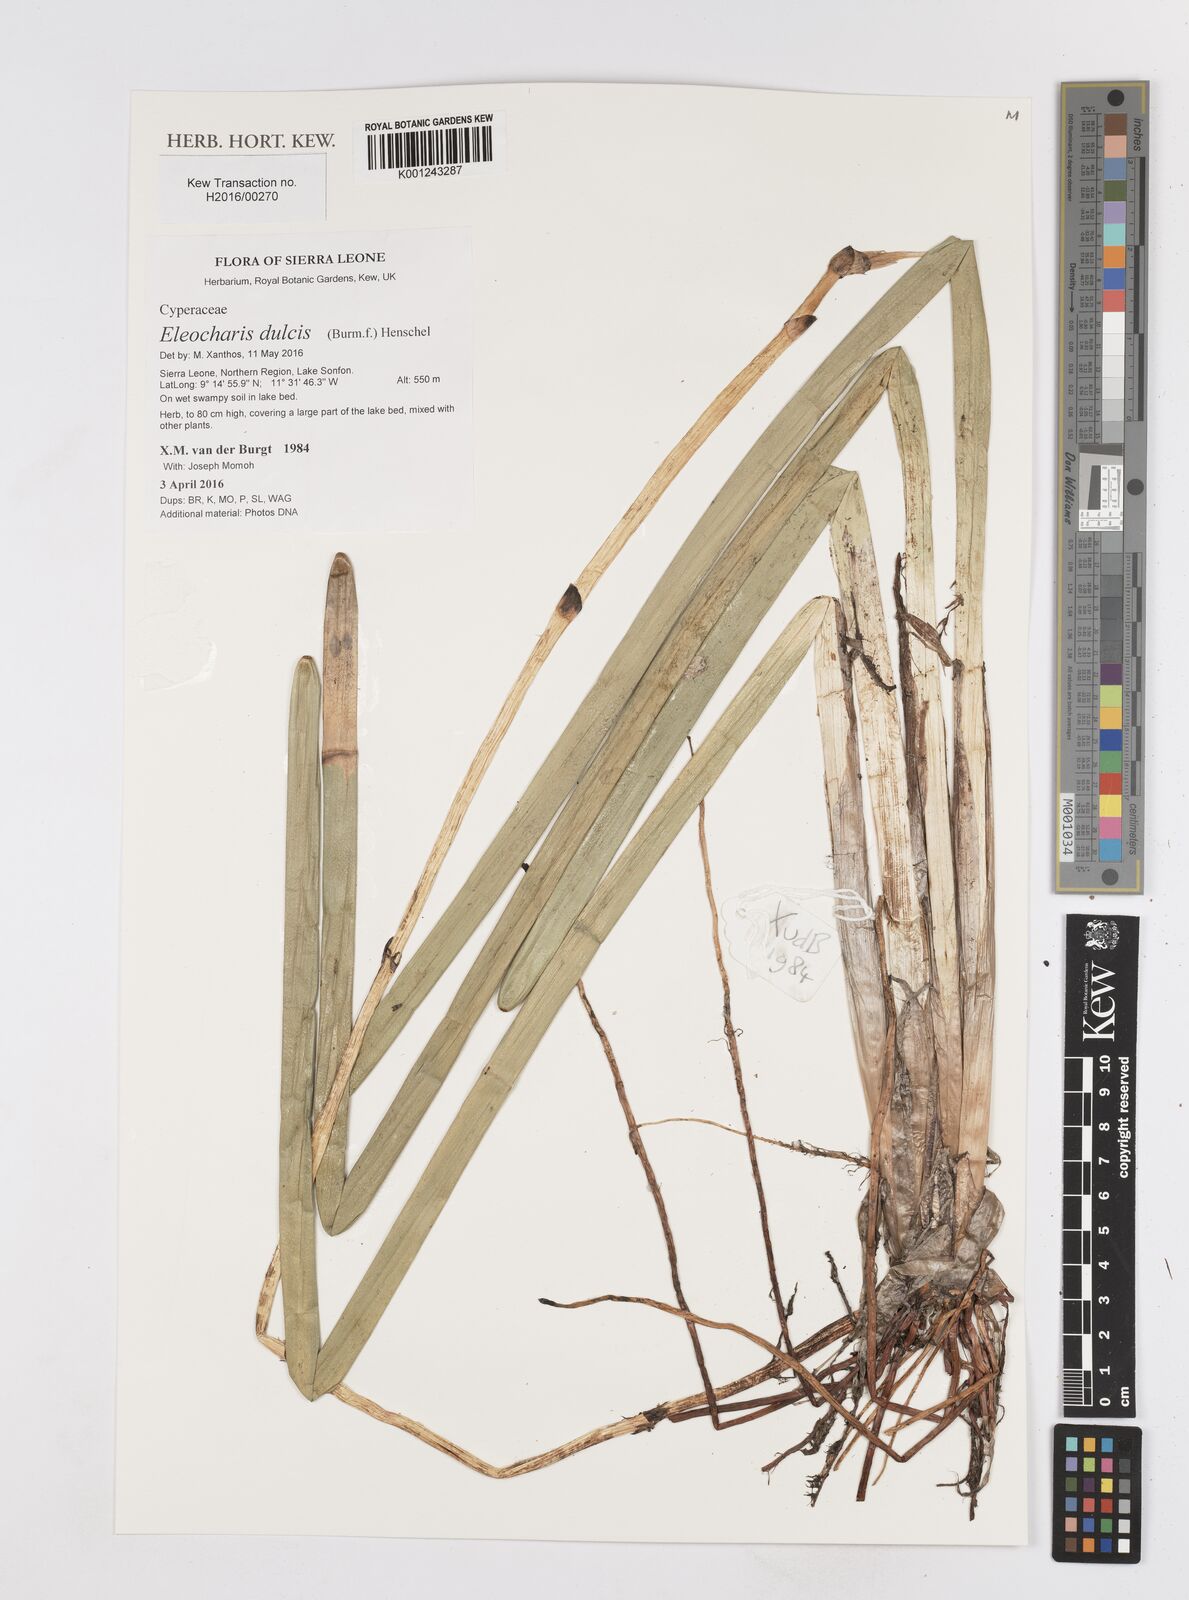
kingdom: Plantae
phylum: Tracheophyta
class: Liliopsida
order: Poales
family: Cyperaceae
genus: Eleocharis
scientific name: Eleocharis dulcis
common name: Chinese water chestnut
